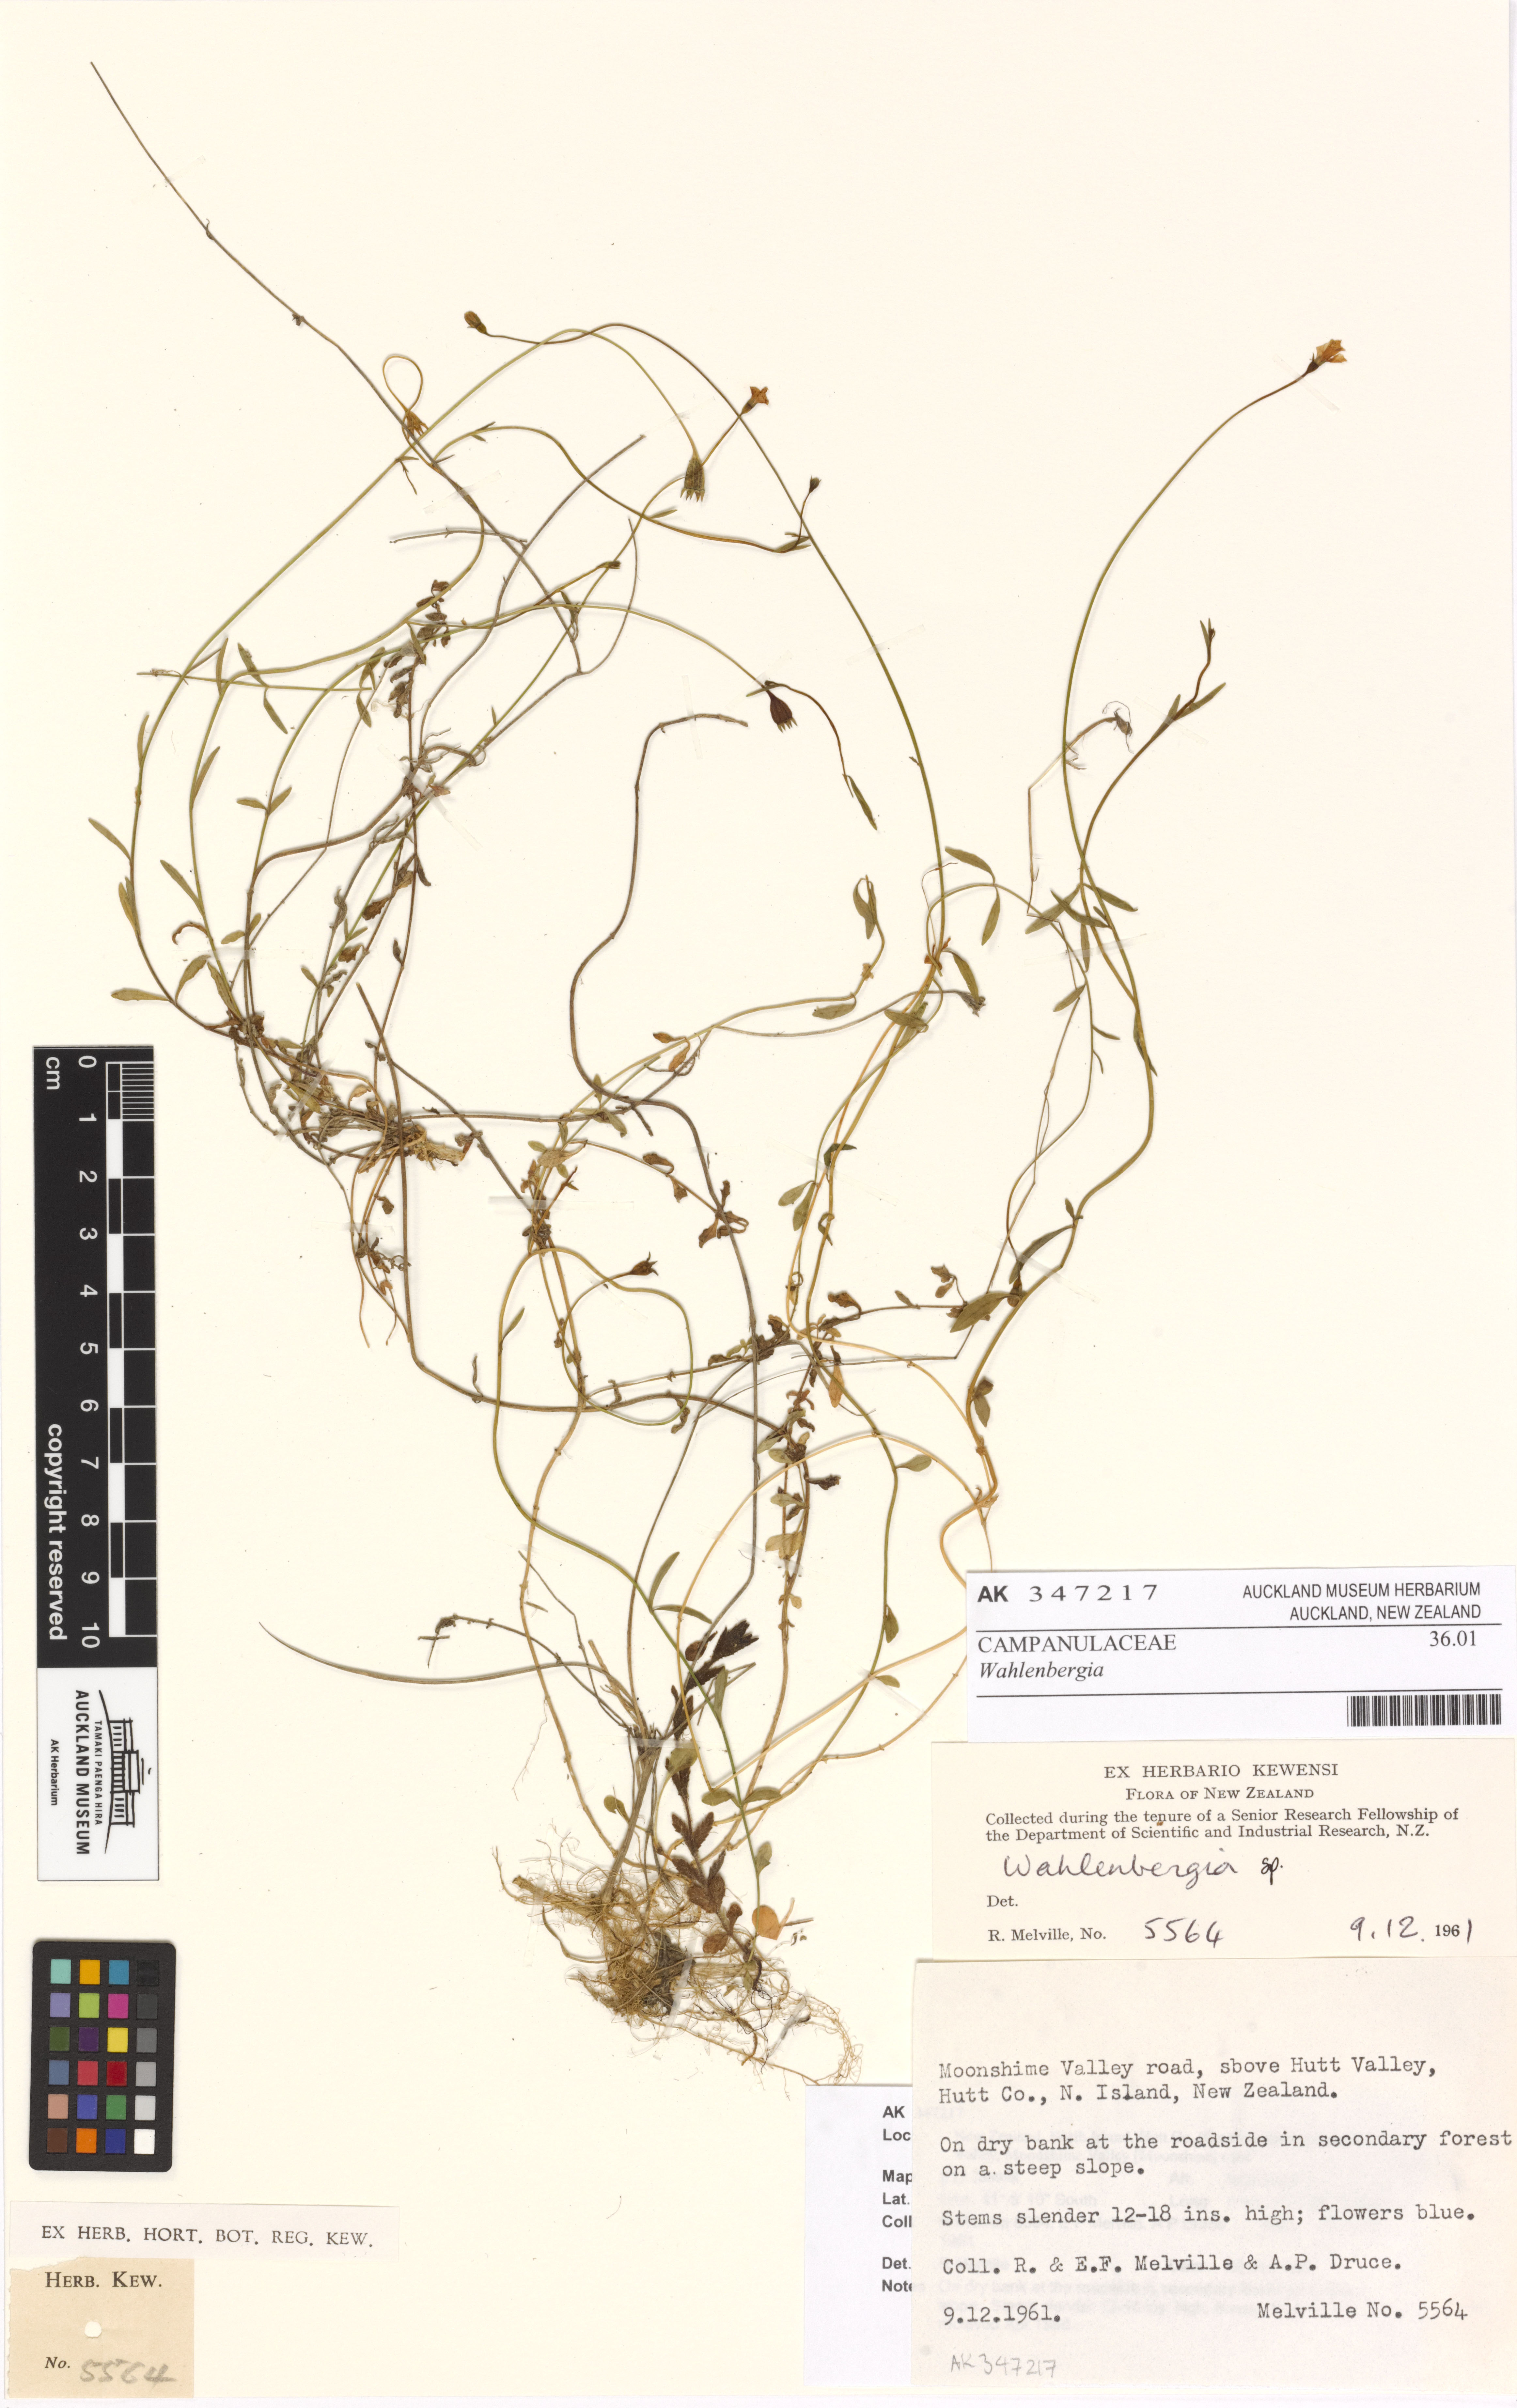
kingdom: Plantae
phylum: Tracheophyta
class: Magnoliopsida
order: Asterales
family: Campanulaceae
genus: Wahlenbergia
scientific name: Wahlenbergia
